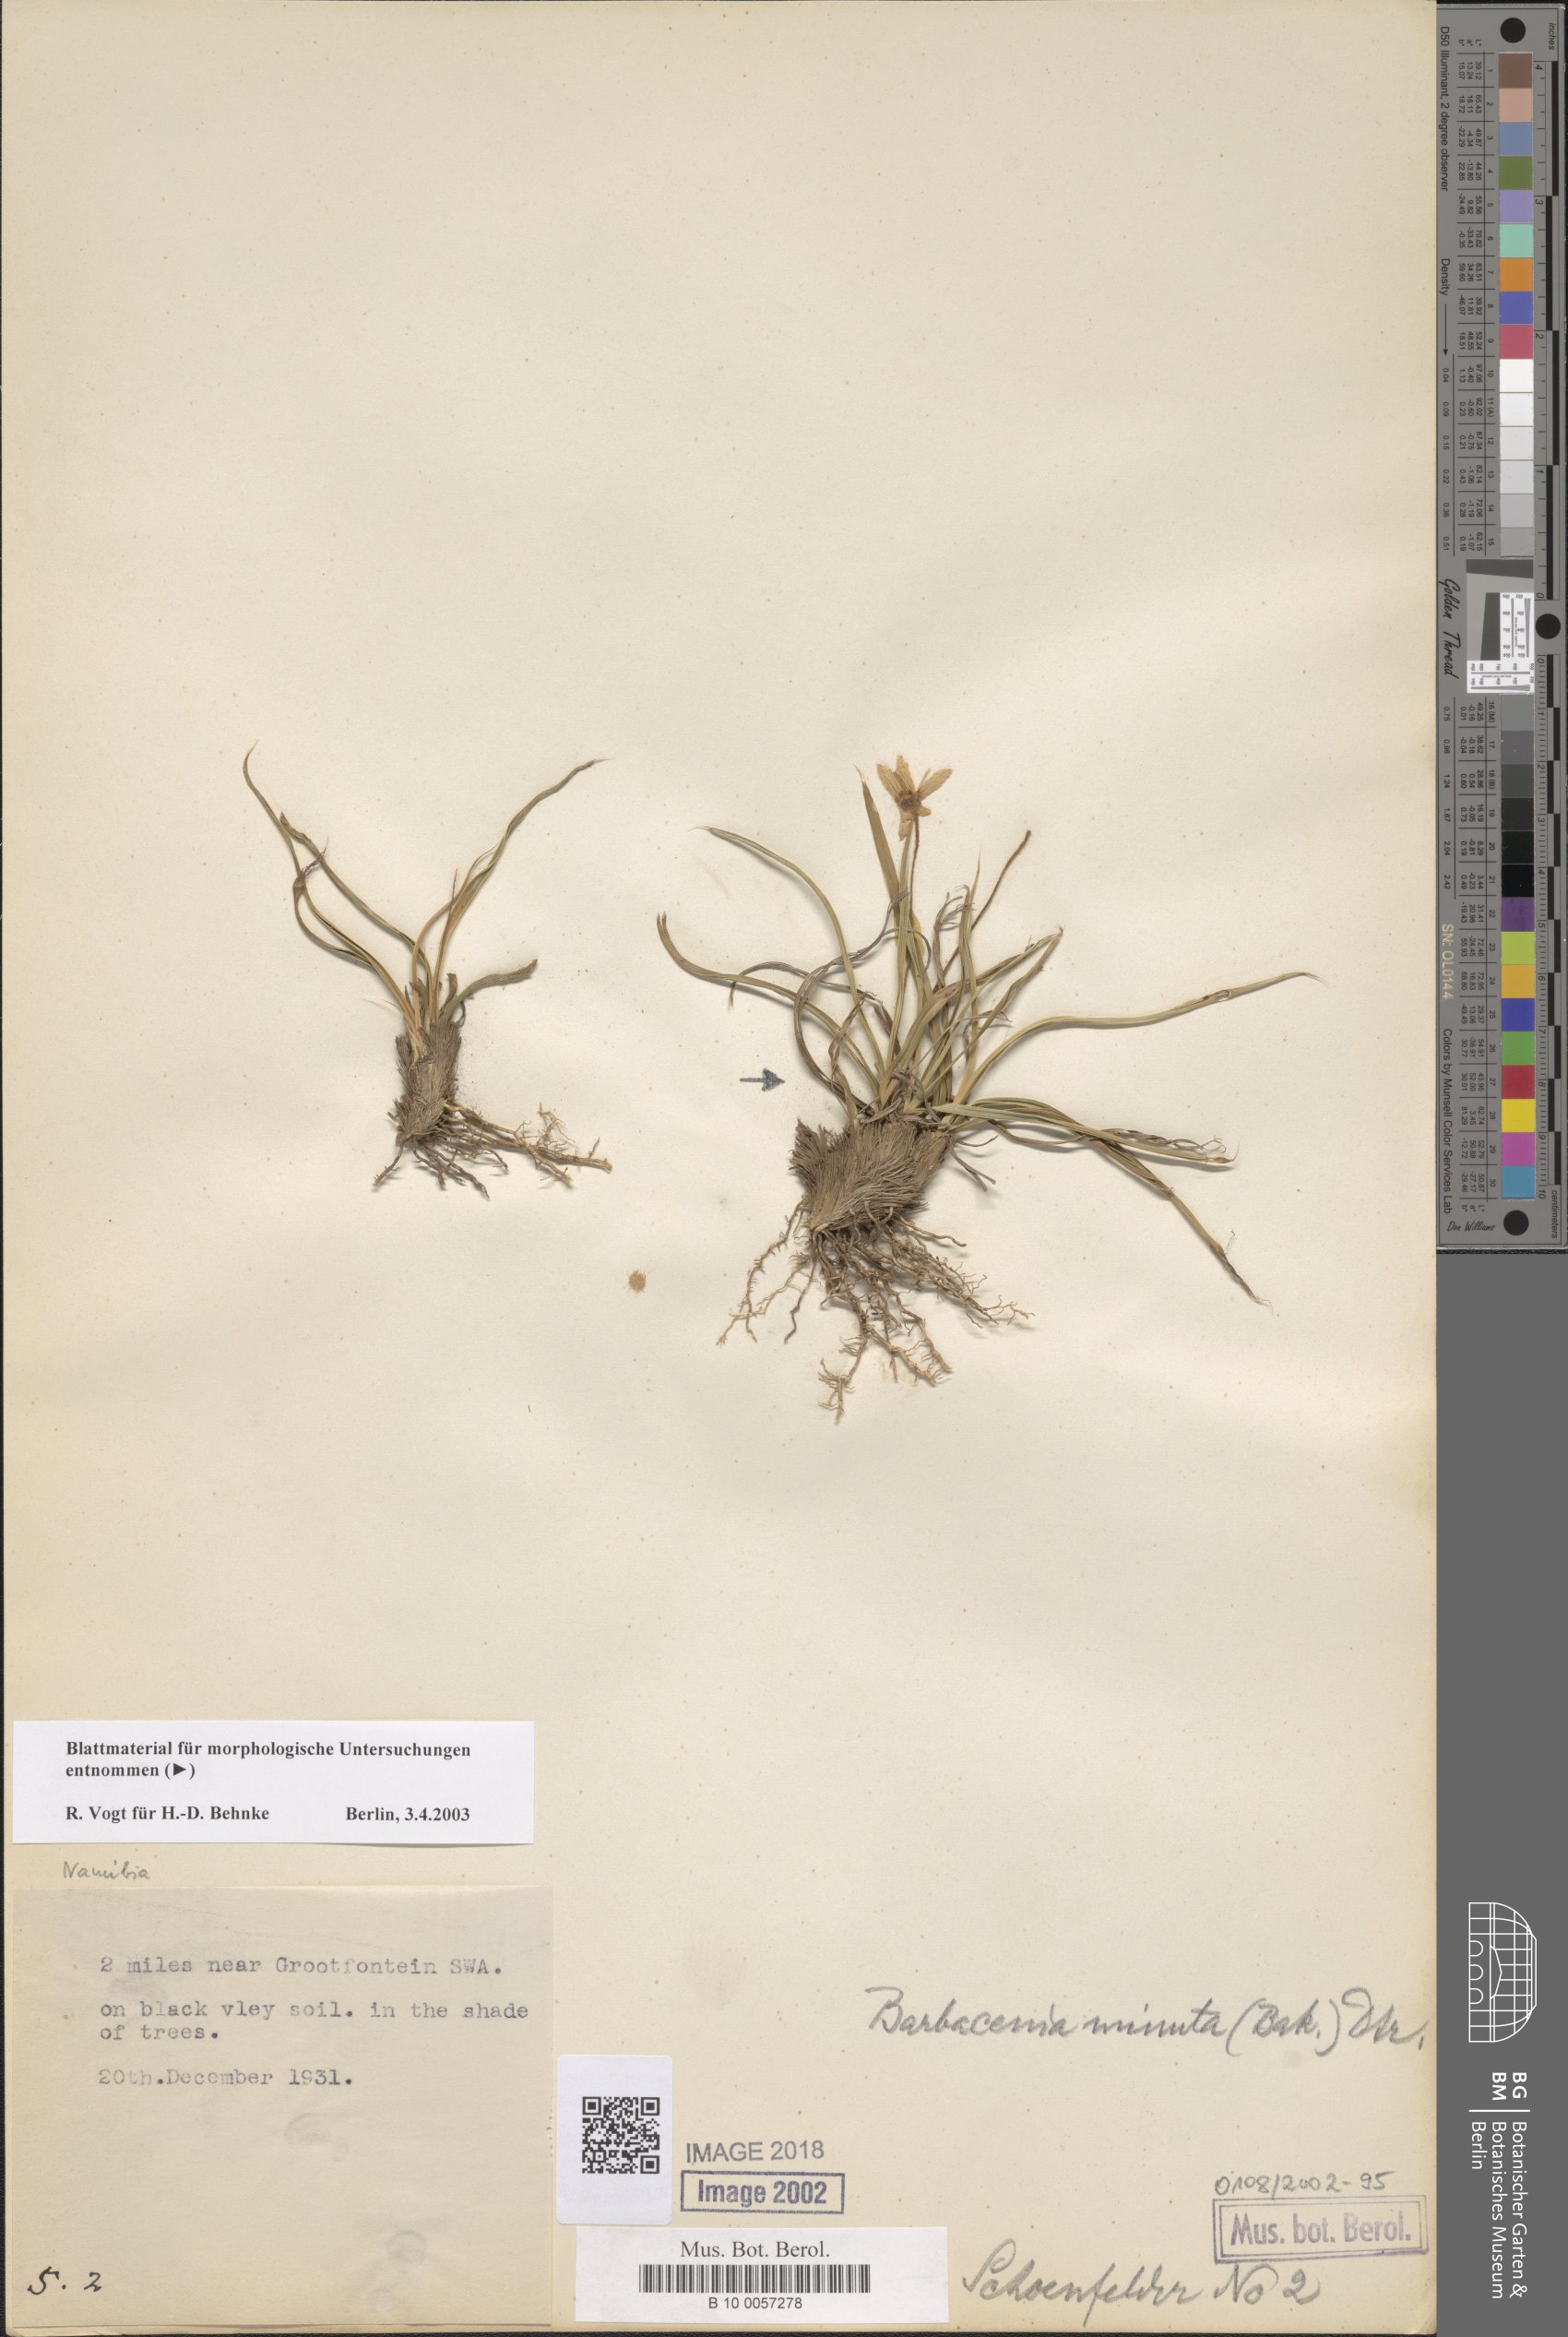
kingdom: Plantae
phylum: Tracheophyta
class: Liliopsida
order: Pandanales
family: Velloziaceae
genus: Xerophyta
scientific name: Xerophyta elegans
